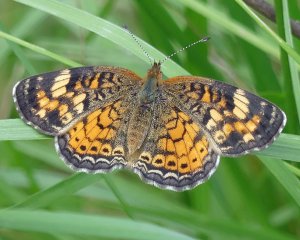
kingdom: Animalia
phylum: Arthropoda
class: Insecta
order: Lepidoptera
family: Nymphalidae
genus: Phyciodes
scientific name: Phyciodes tharos
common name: Pearl Crescent
